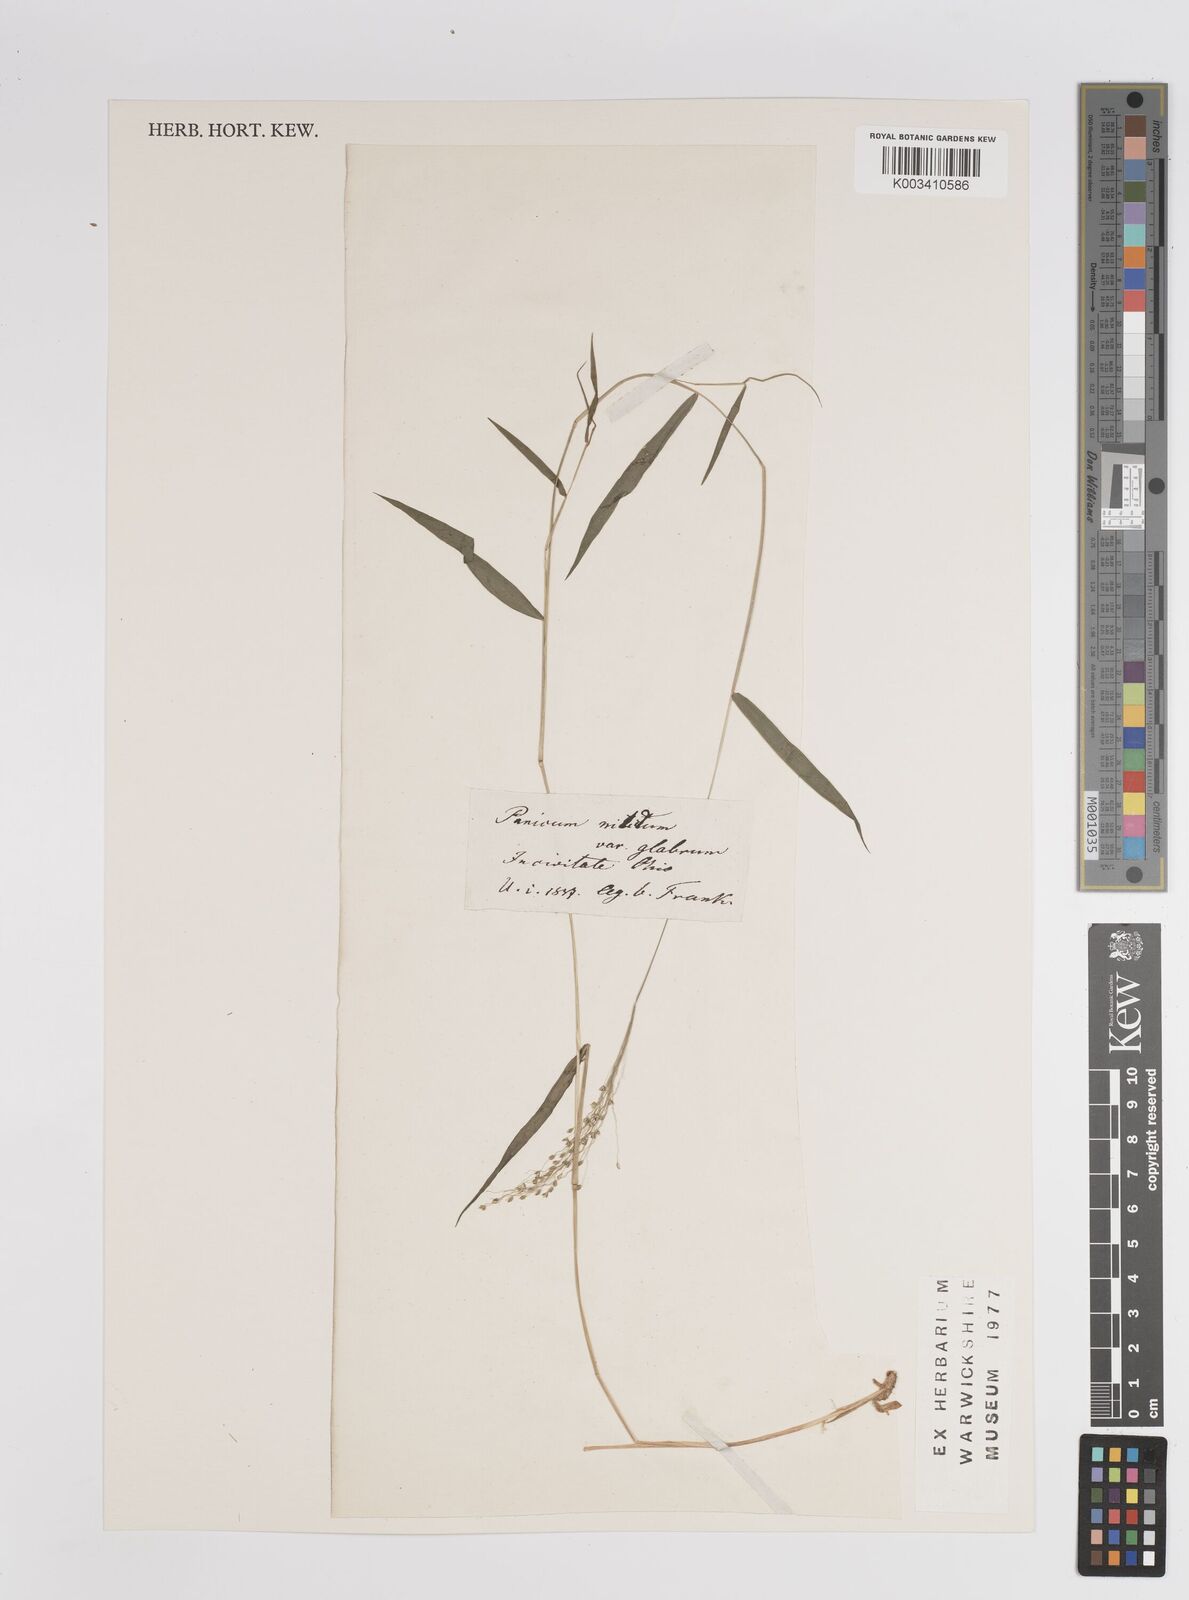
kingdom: Plantae
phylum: Tracheophyta
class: Liliopsida
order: Poales
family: Poaceae
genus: Dichanthelium
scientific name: Dichanthelium mattamuskeetense
